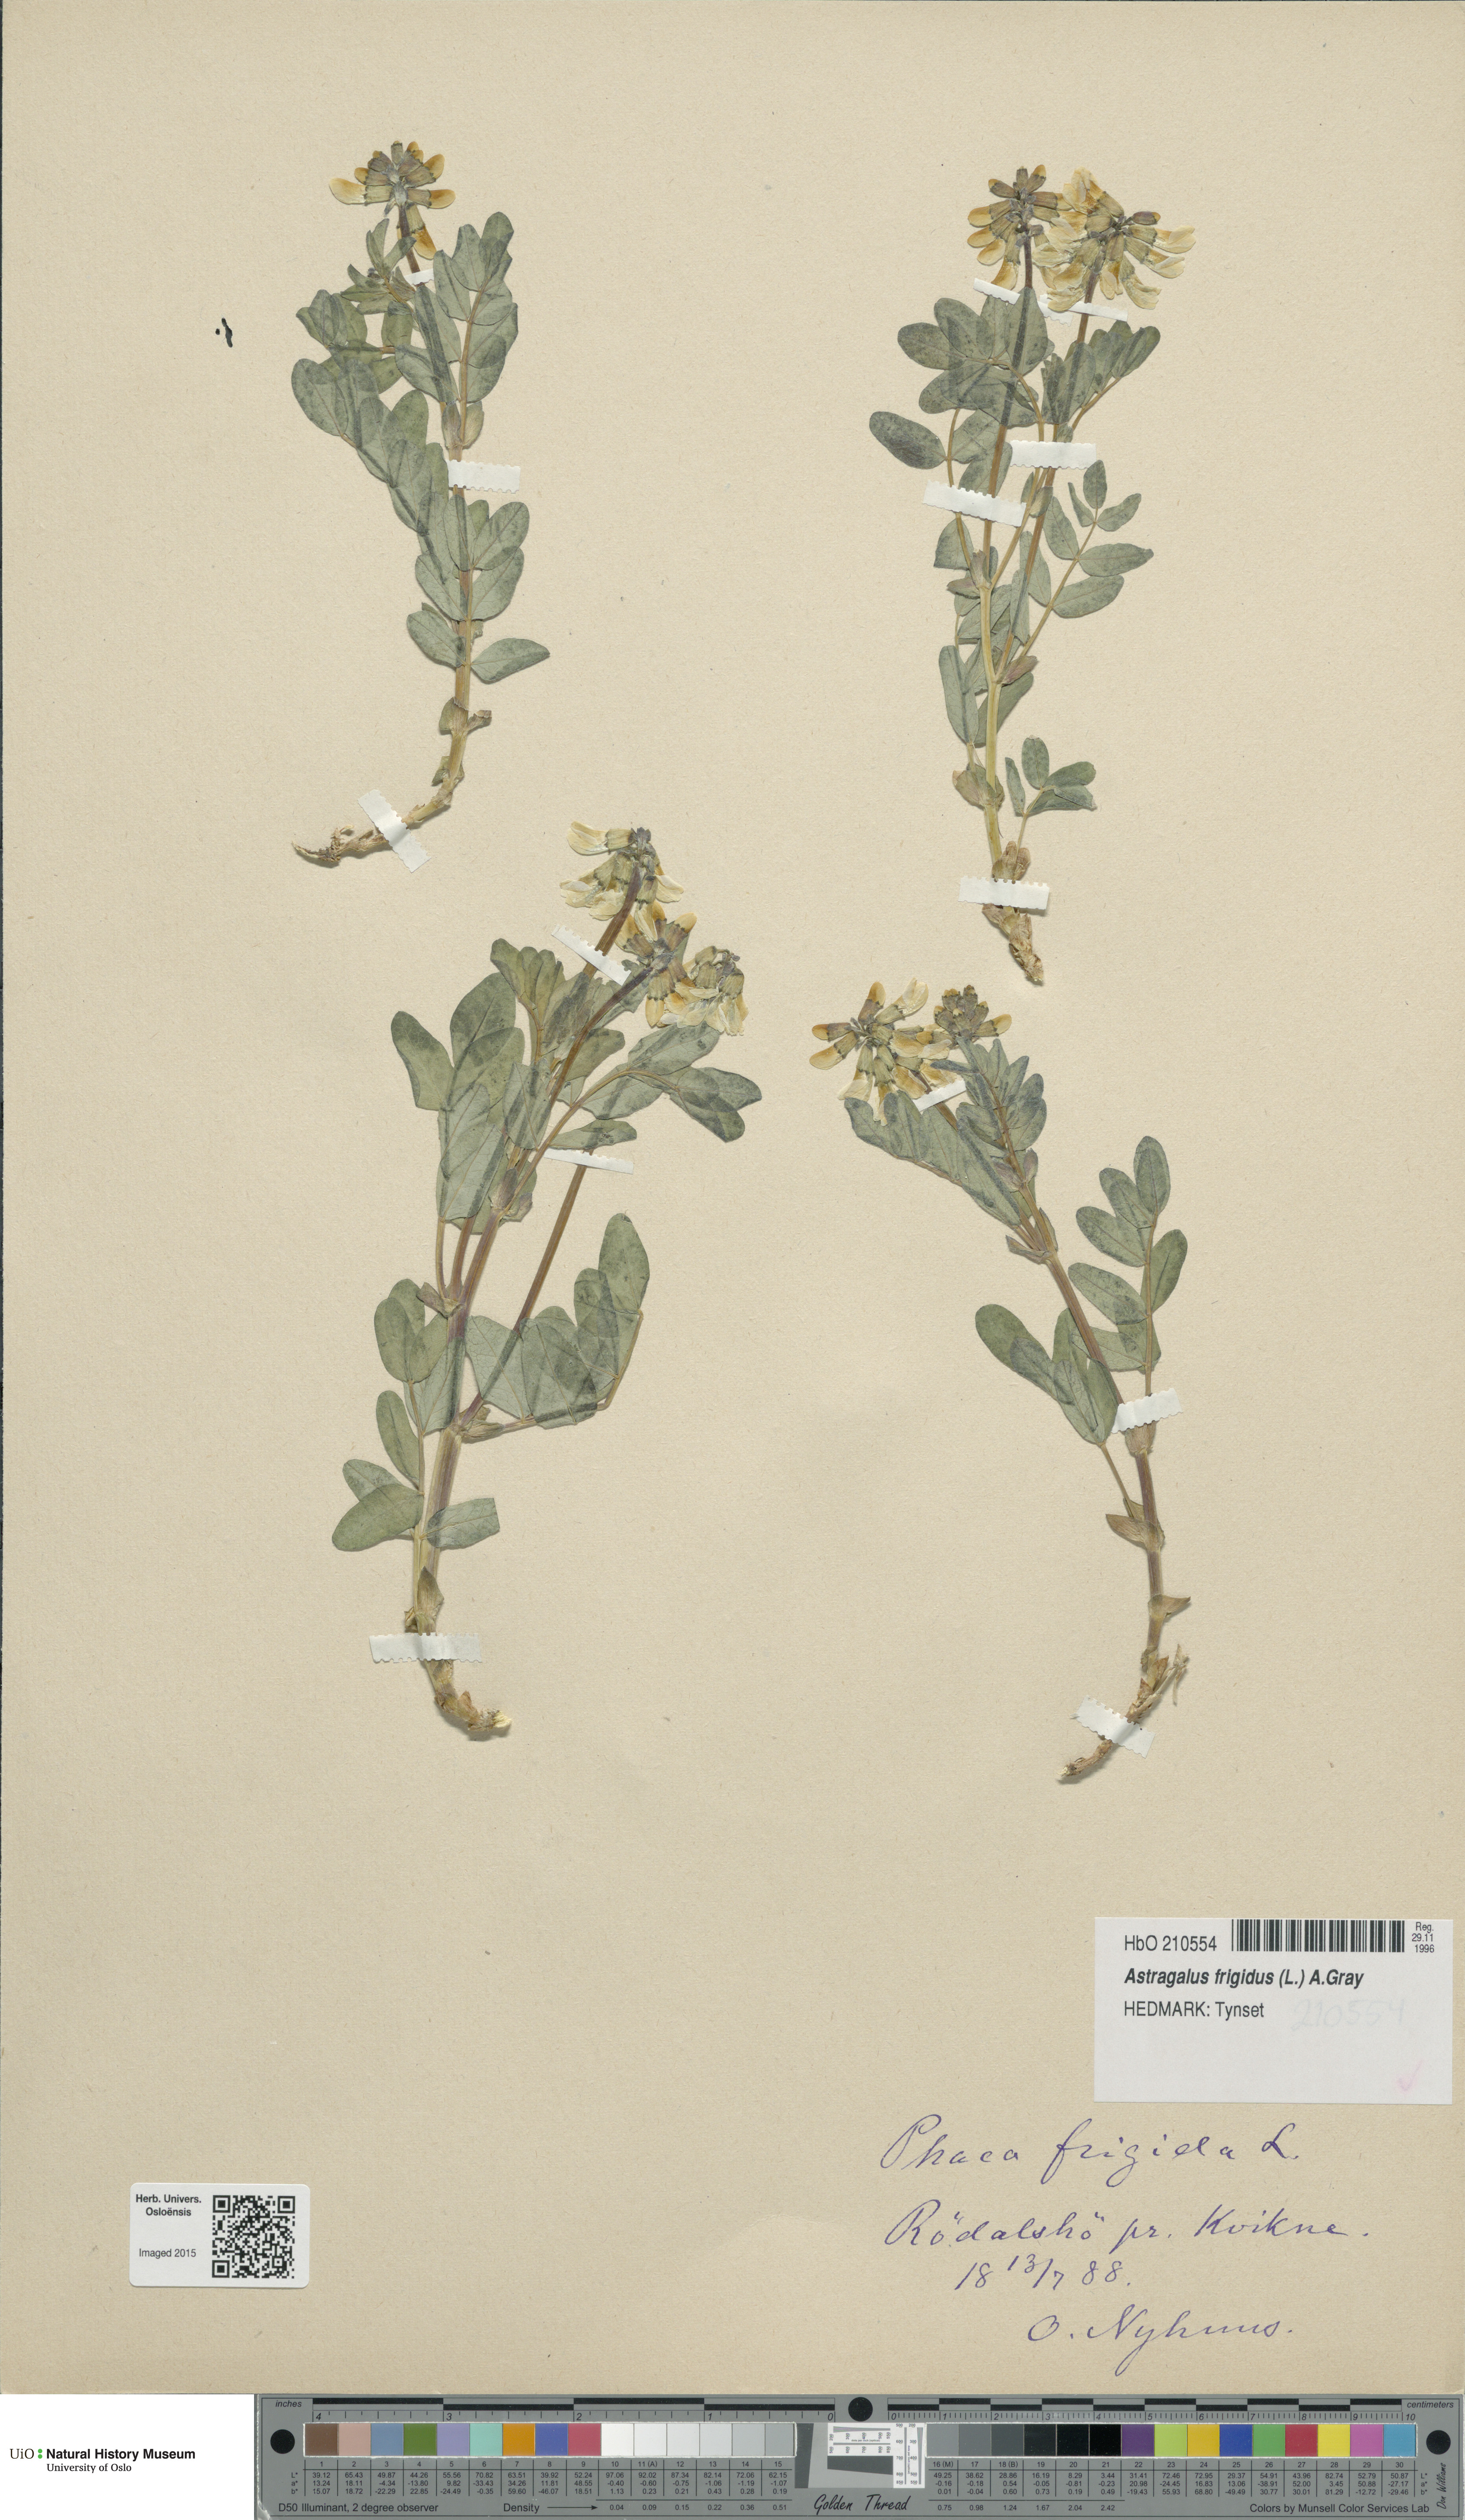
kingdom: Plantae
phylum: Tracheophyta
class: Magnoliopsida
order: Fabales
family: Fabaceae
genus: Astragalus
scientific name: Astragalus frigidus
